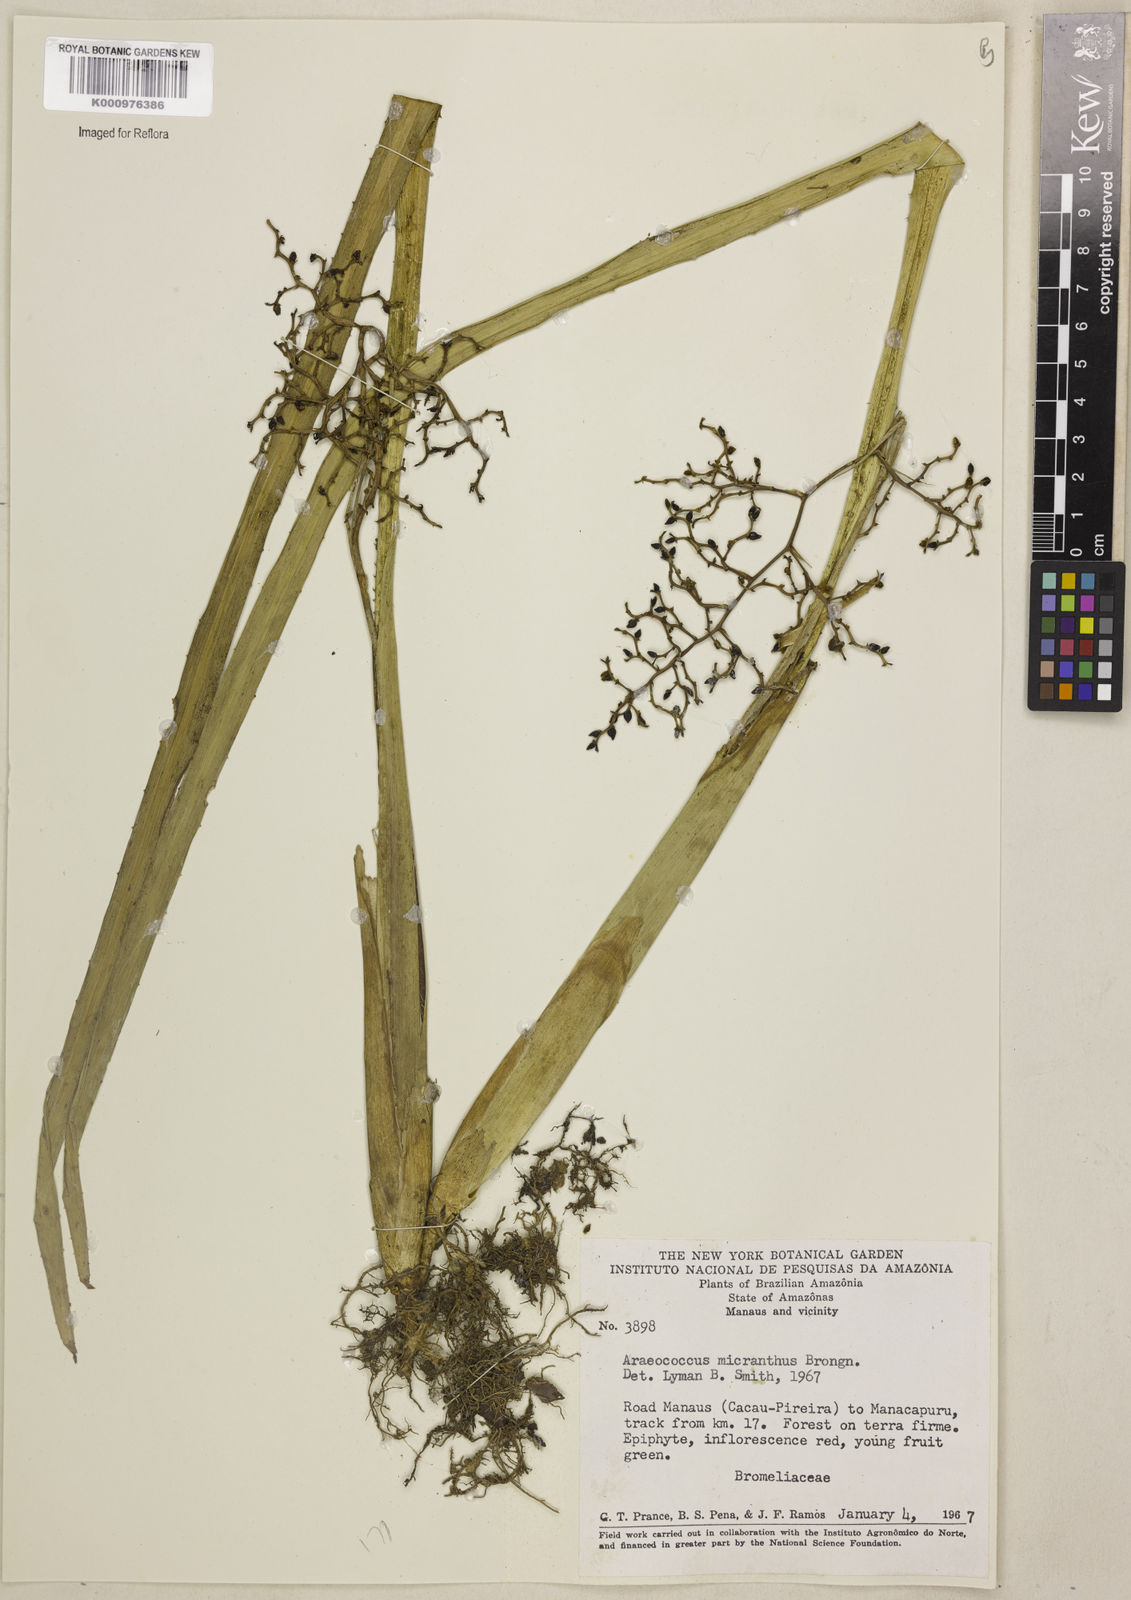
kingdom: Plantae
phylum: Tracheophyta
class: Liliopsida
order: Poales
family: Bromeliaceae
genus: Araeococcus
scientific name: Araeococcus micranthus
